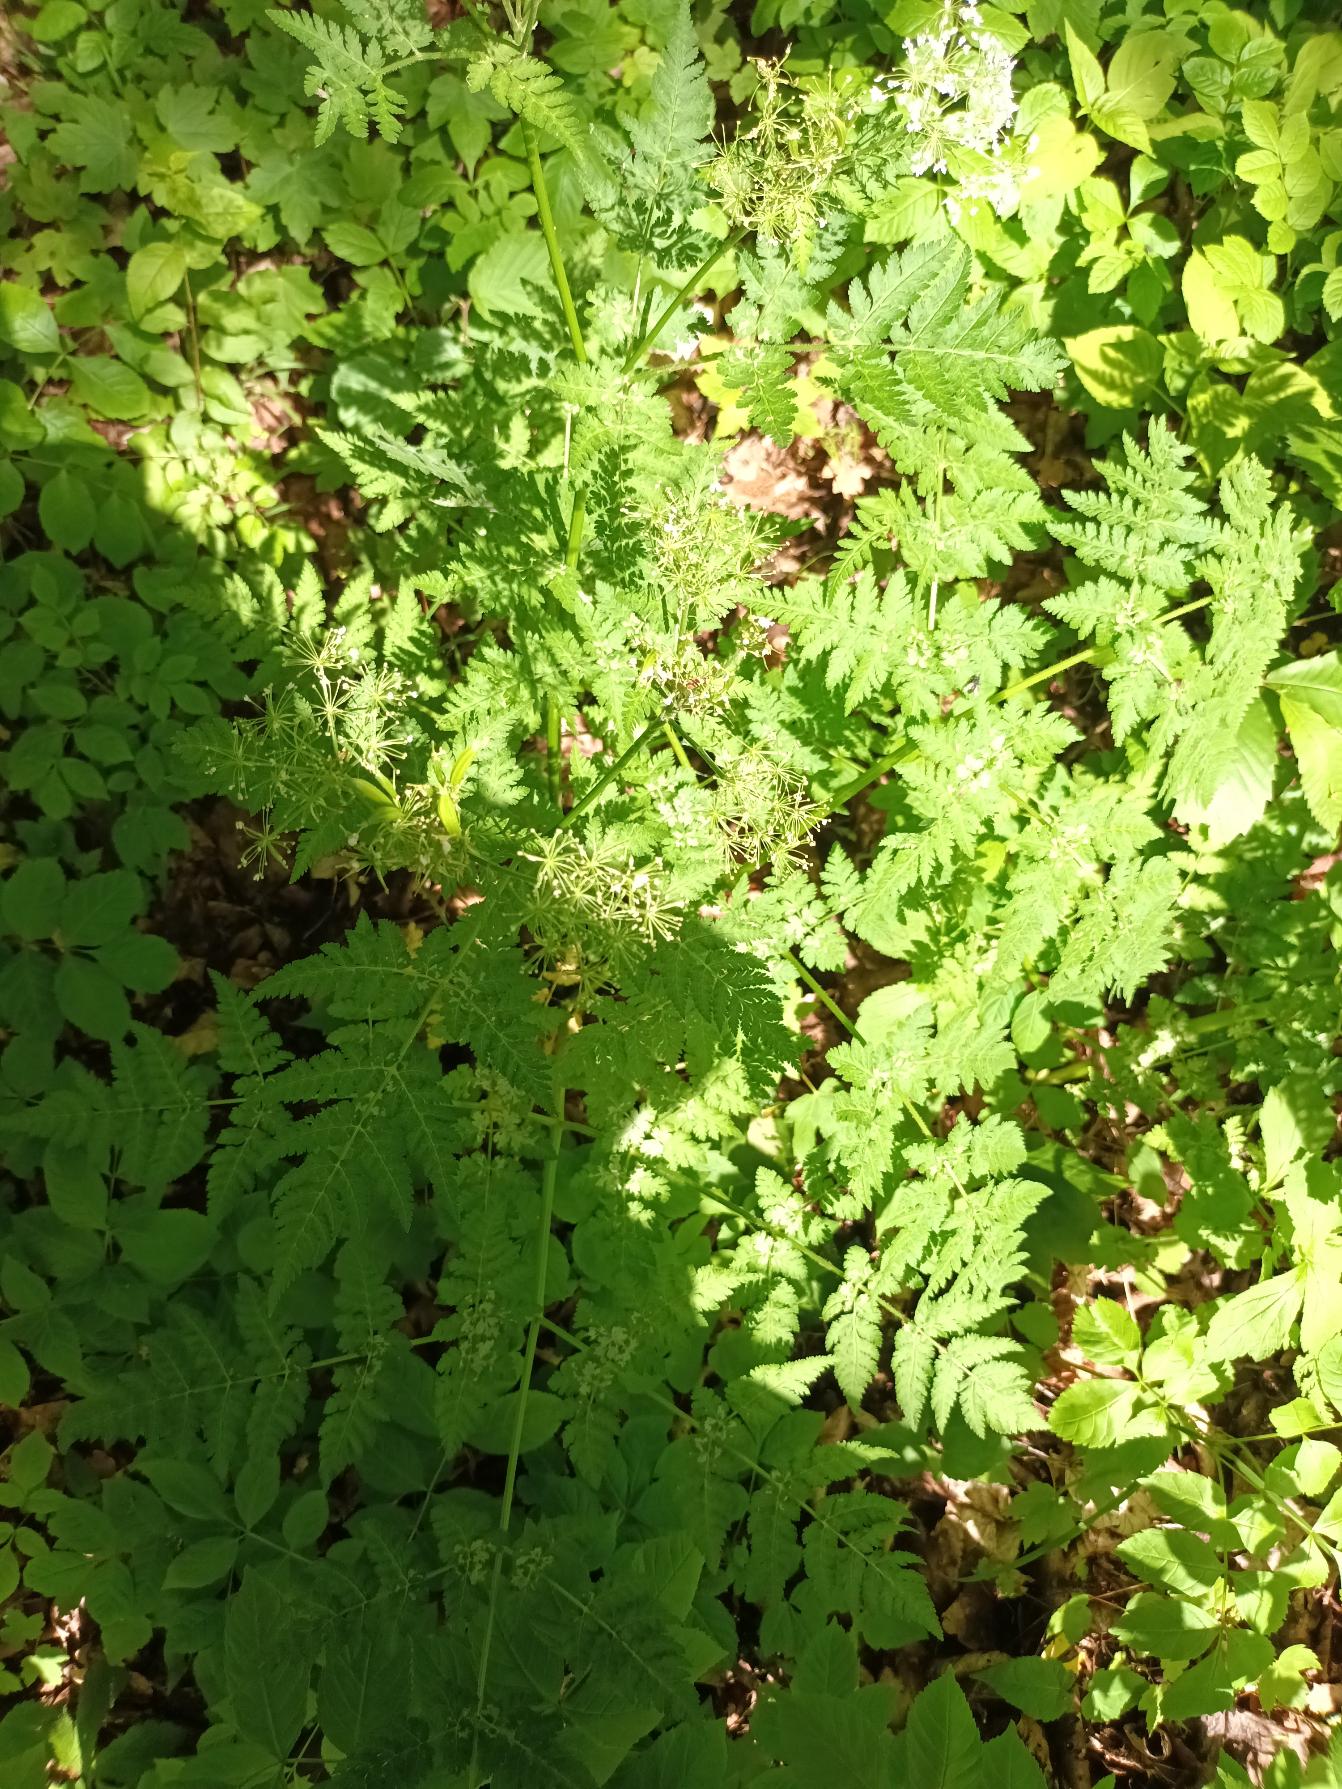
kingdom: Plantae
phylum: Tracheophyta
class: Magnoliopsida
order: Apiales
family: Apiaceae
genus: Myrrhis
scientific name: Myrrhis odorata
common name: Sødskærm
